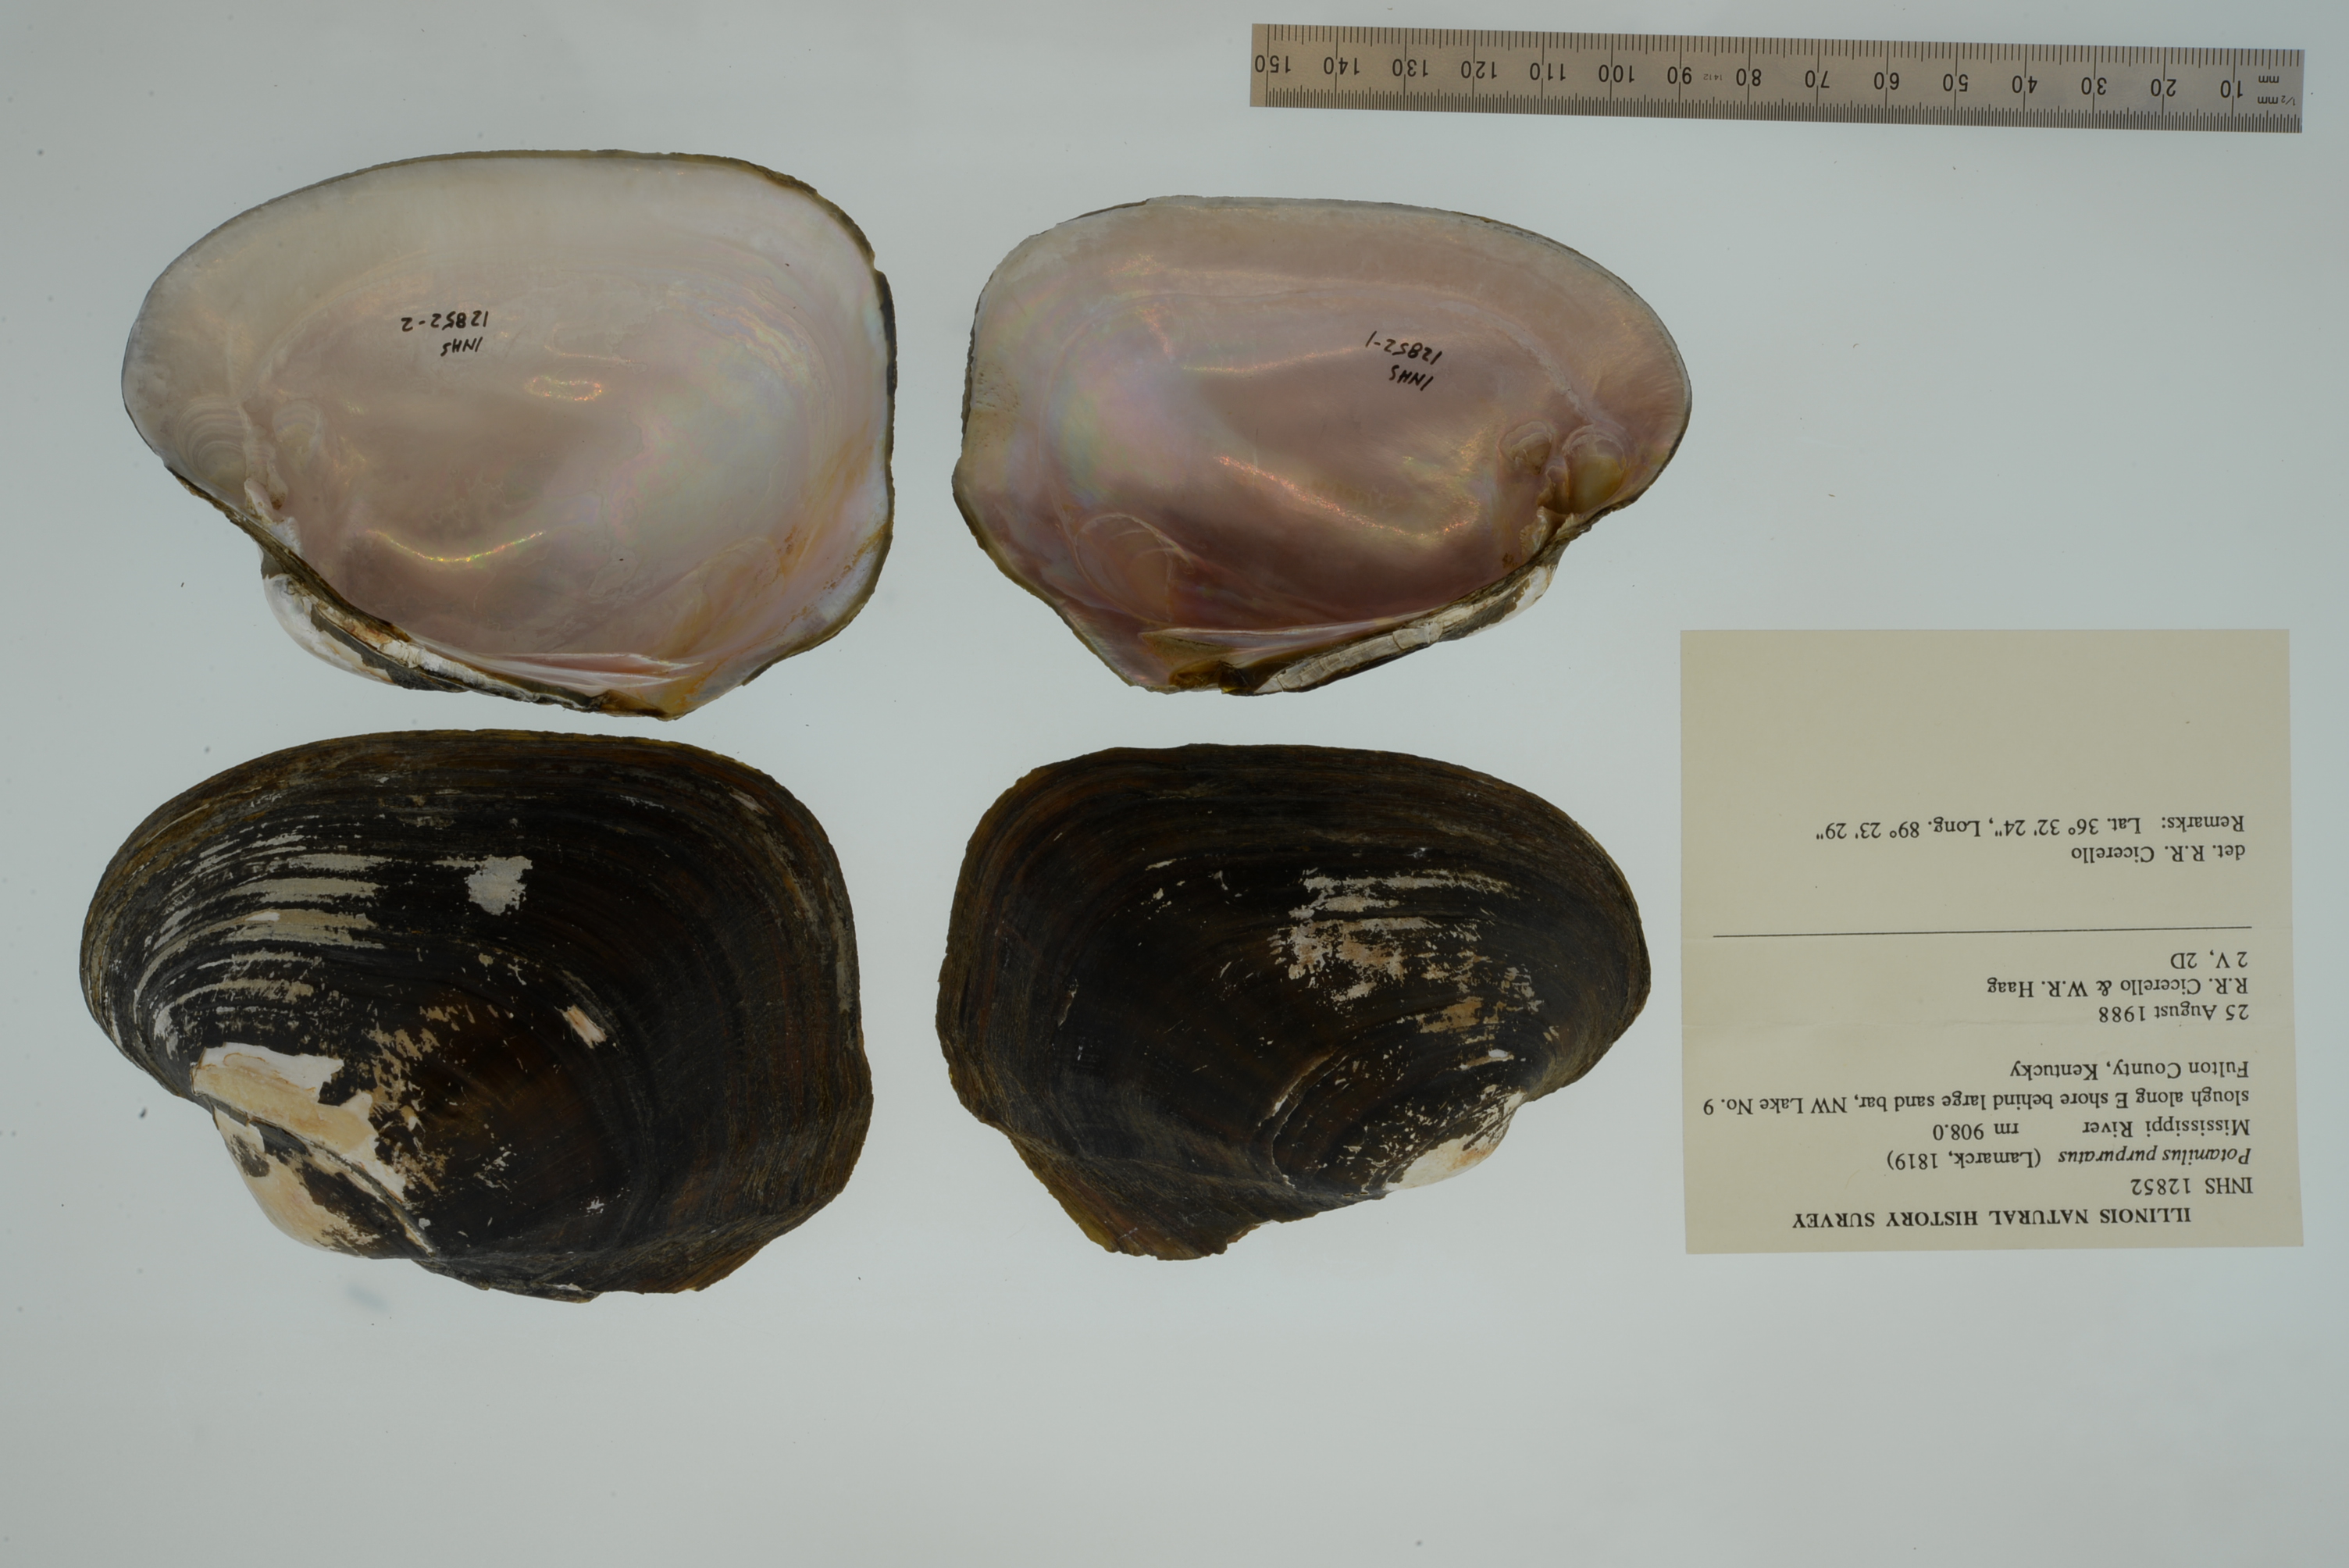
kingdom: Animalia
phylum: Mollusca
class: Bivalvia
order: Unionida
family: Unionidae
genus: Potamilus
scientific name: Potamilus purpuratus
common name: Bleufer
